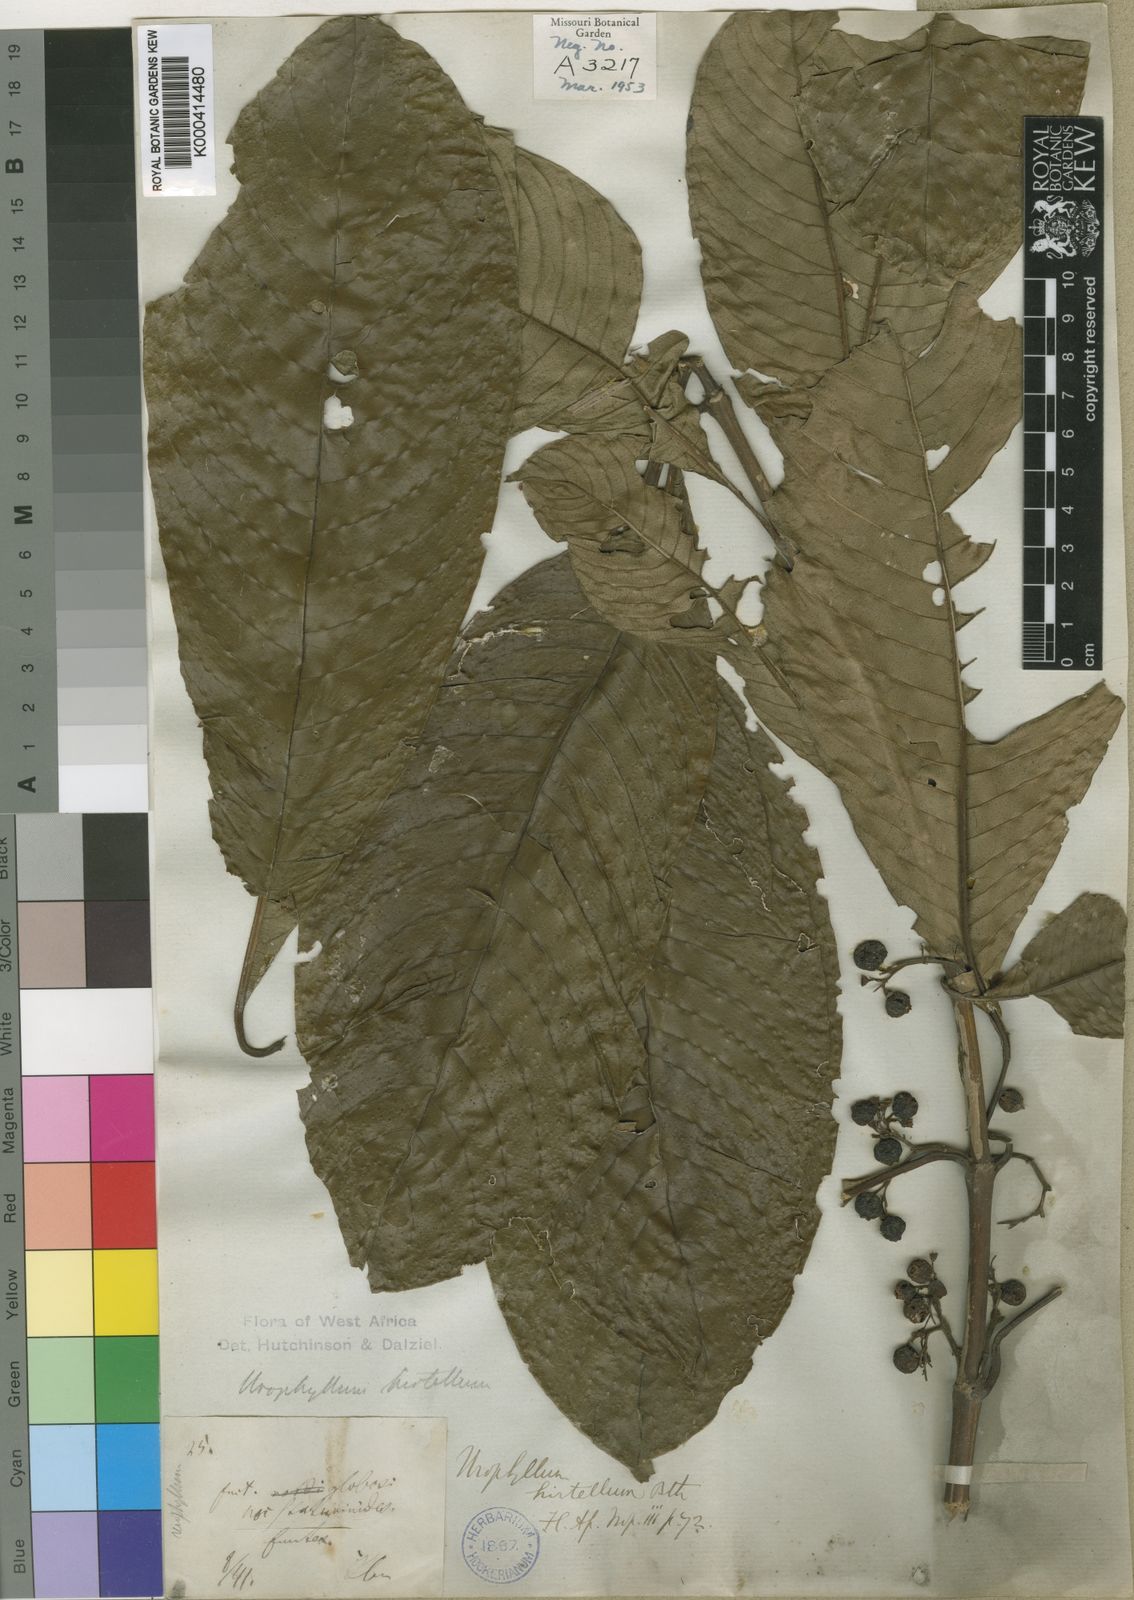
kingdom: Plantae
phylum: Tracheophyta
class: Magnoliopsida
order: Gentianales
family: Rubiaceae
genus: Pauridiantha
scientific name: Pauridiantha hirtella
